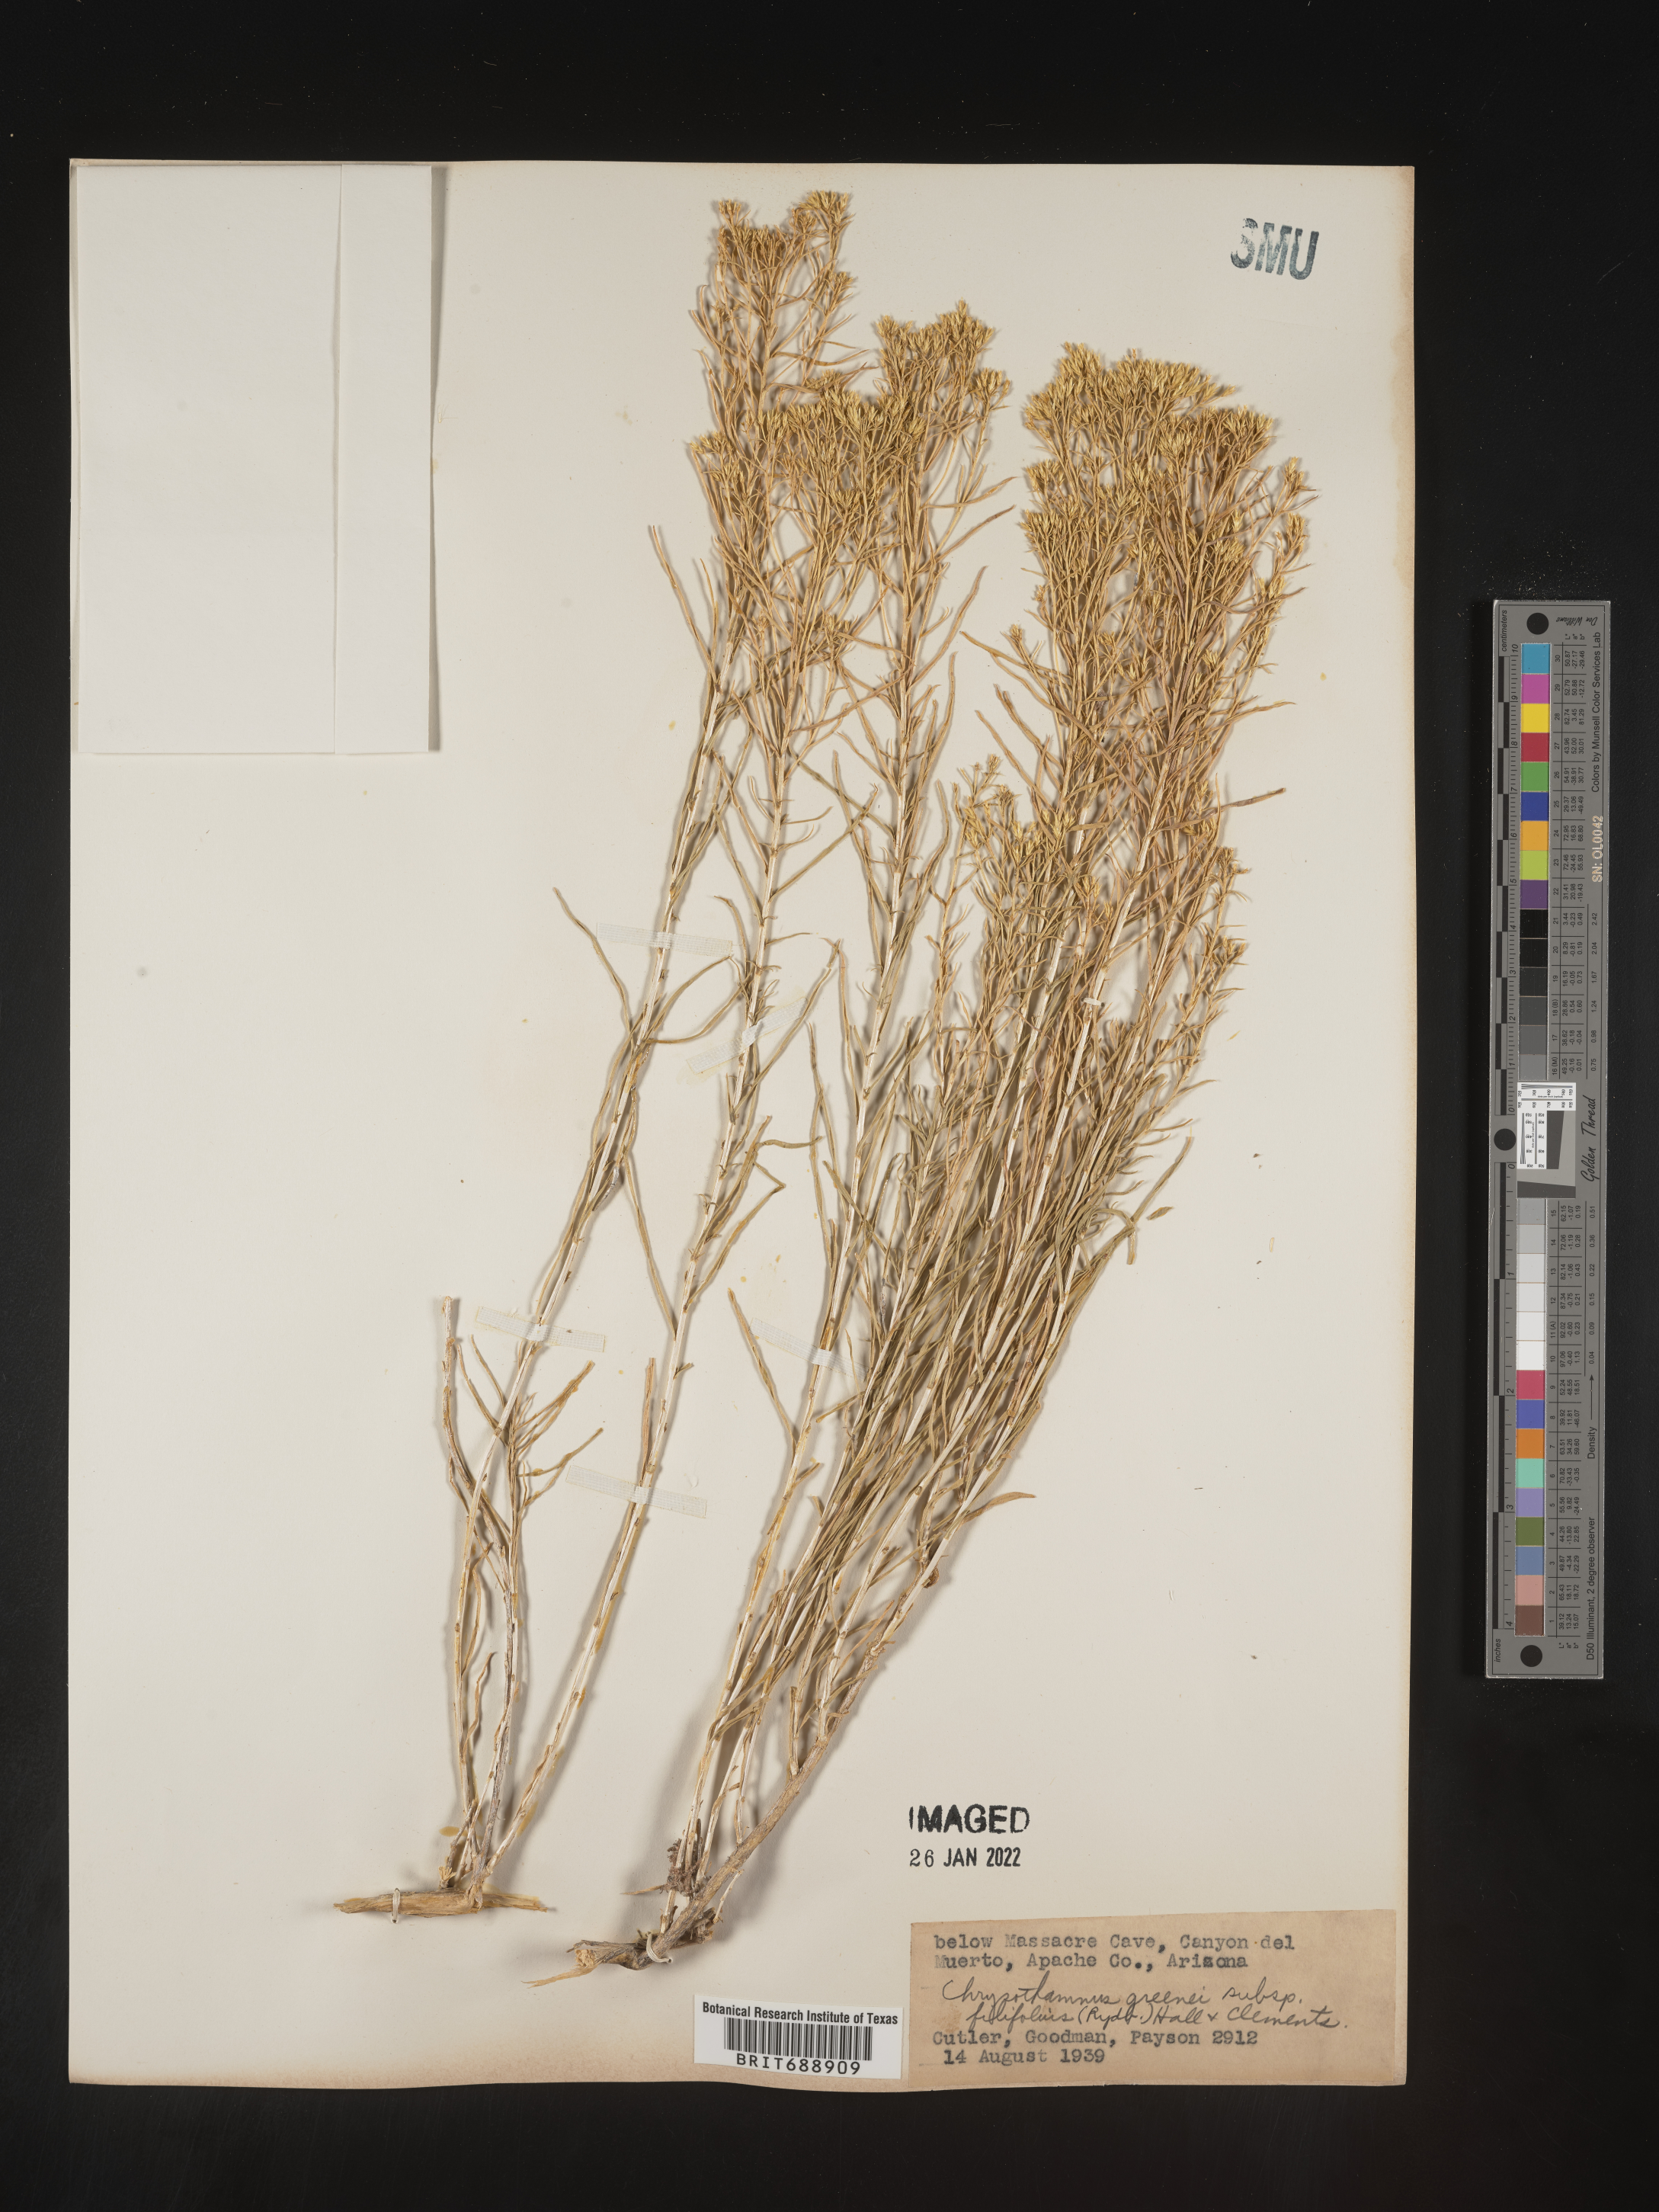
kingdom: Plantae
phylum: Tracheophyta
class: Magnoliopsida
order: Asterales
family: Asteraceae
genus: Chrysothamnus
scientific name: Chrysothamnus greenei
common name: Greene's rabbitbrush
